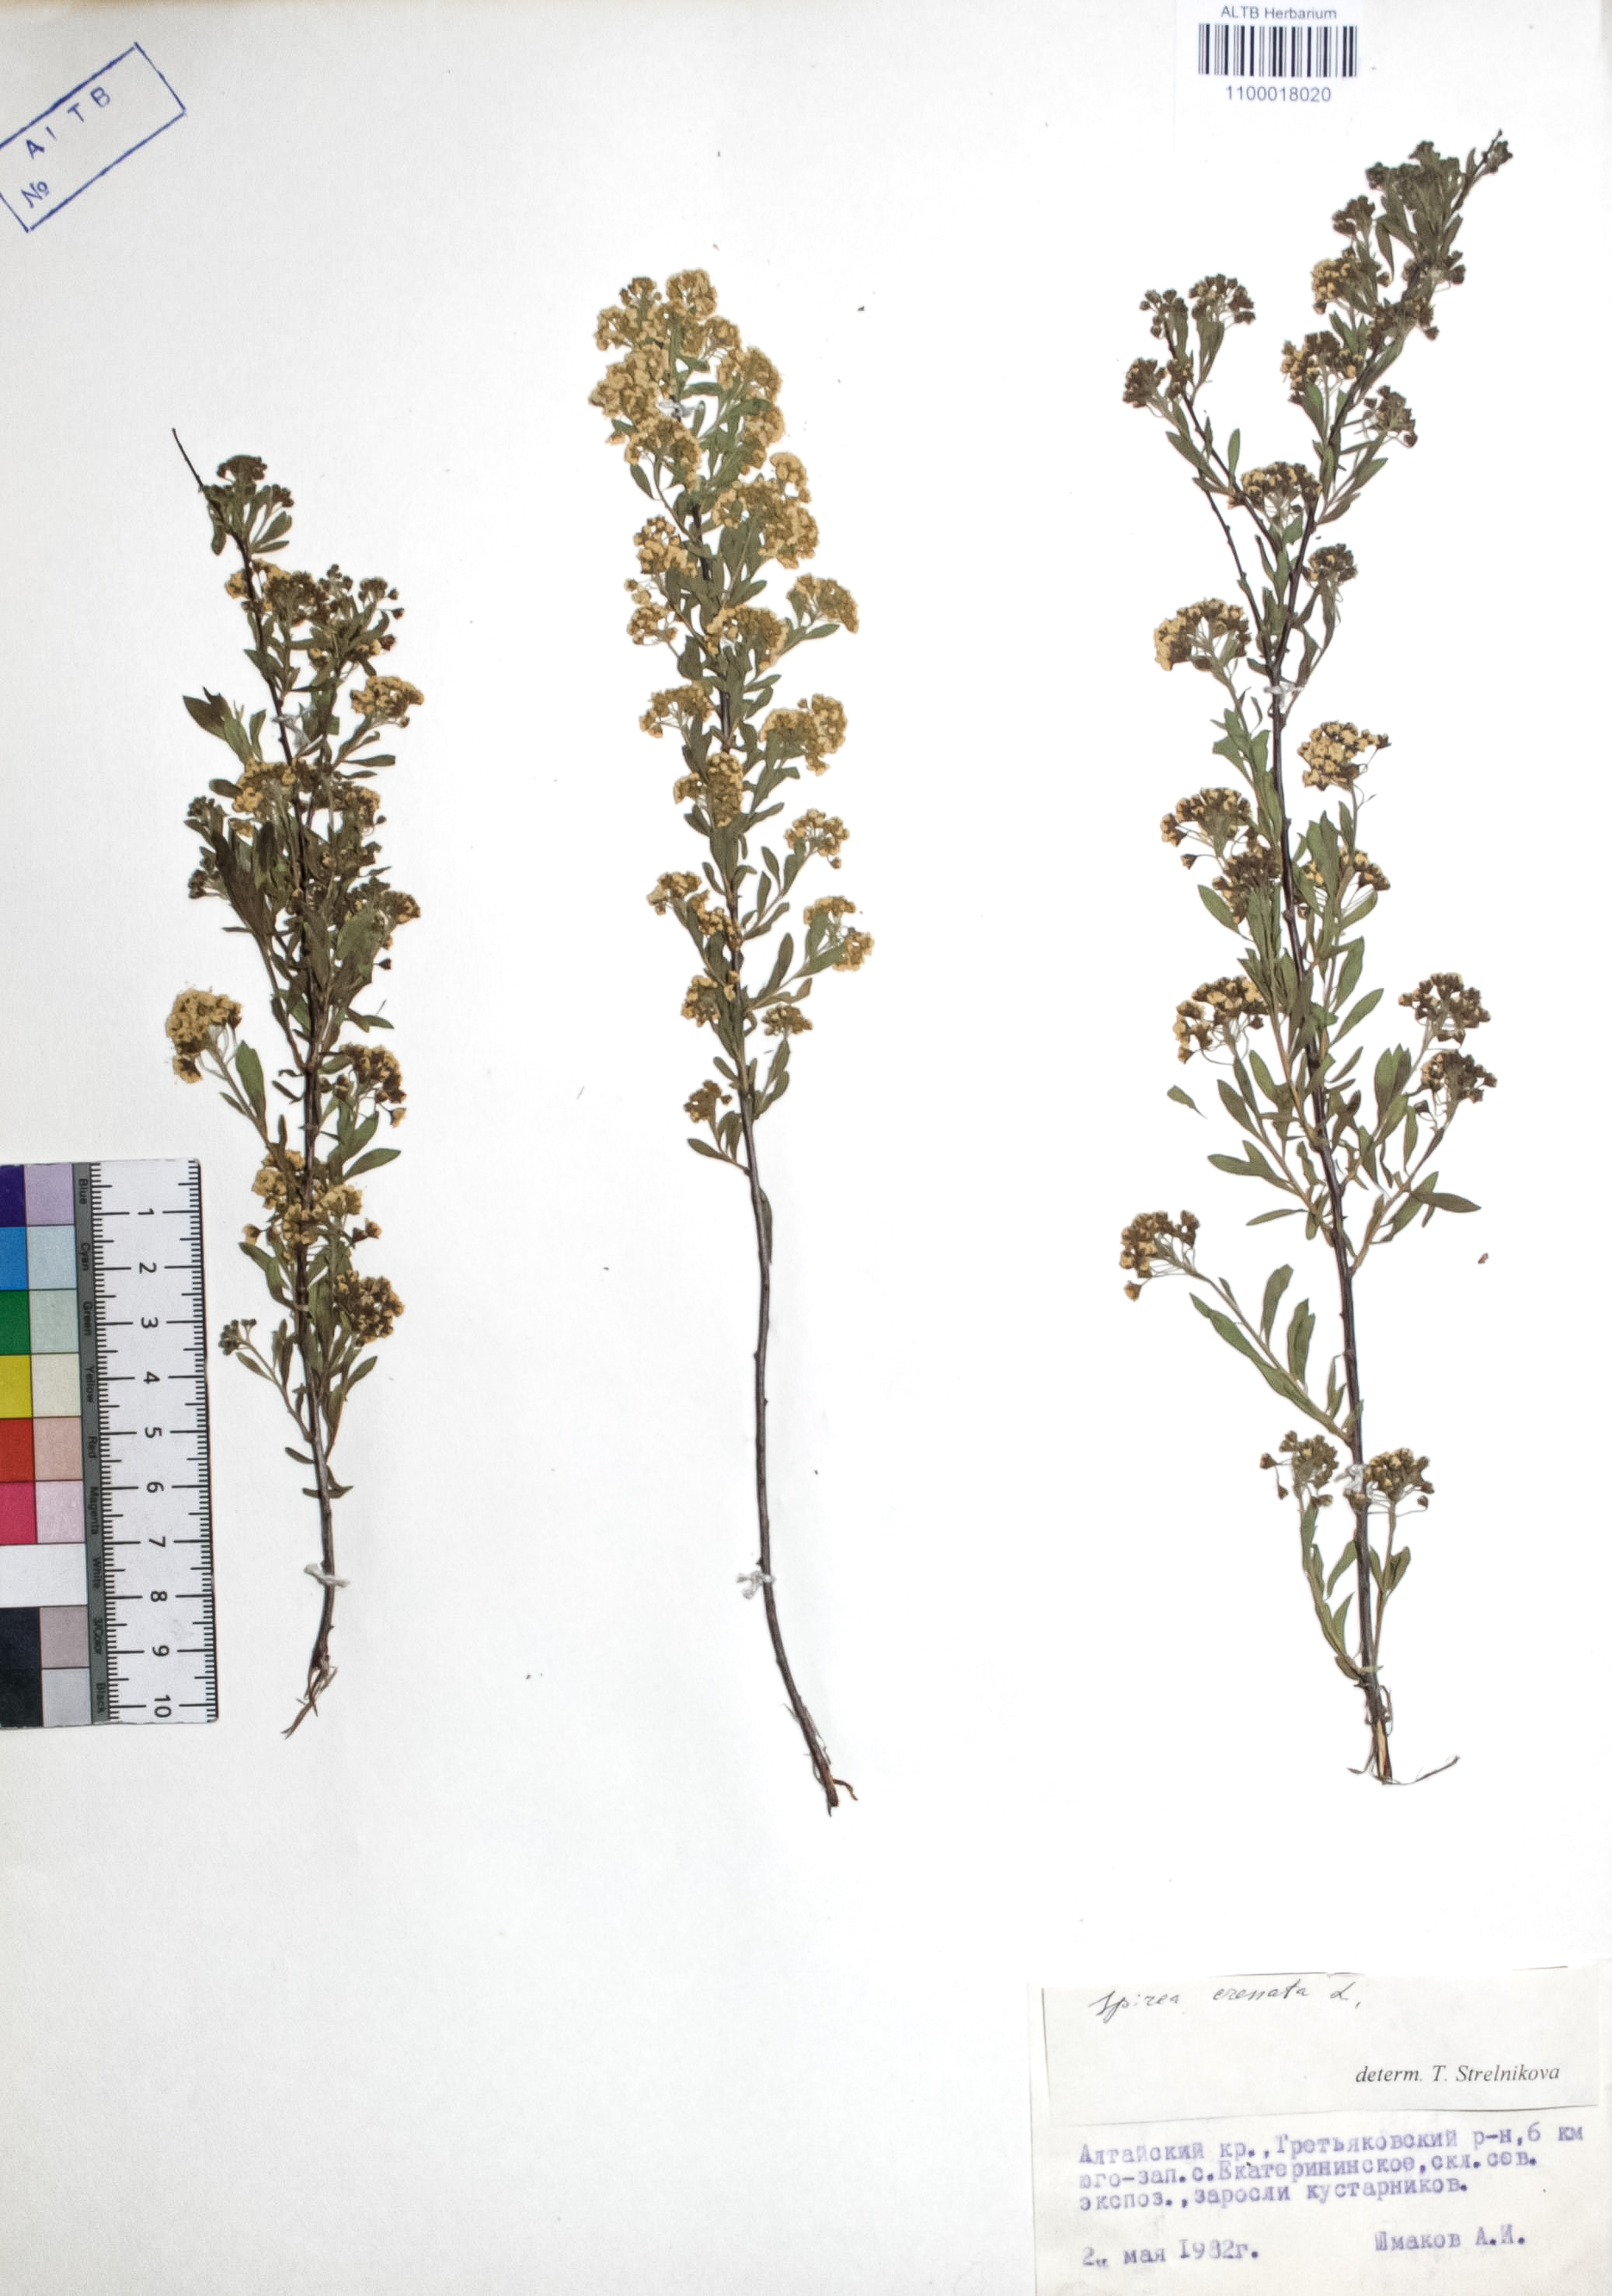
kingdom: Plantae
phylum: Tracheophyta
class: Magnoliopsida
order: Rosales
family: Rosaceae
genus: Spiraea
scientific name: Spiraea crenata
